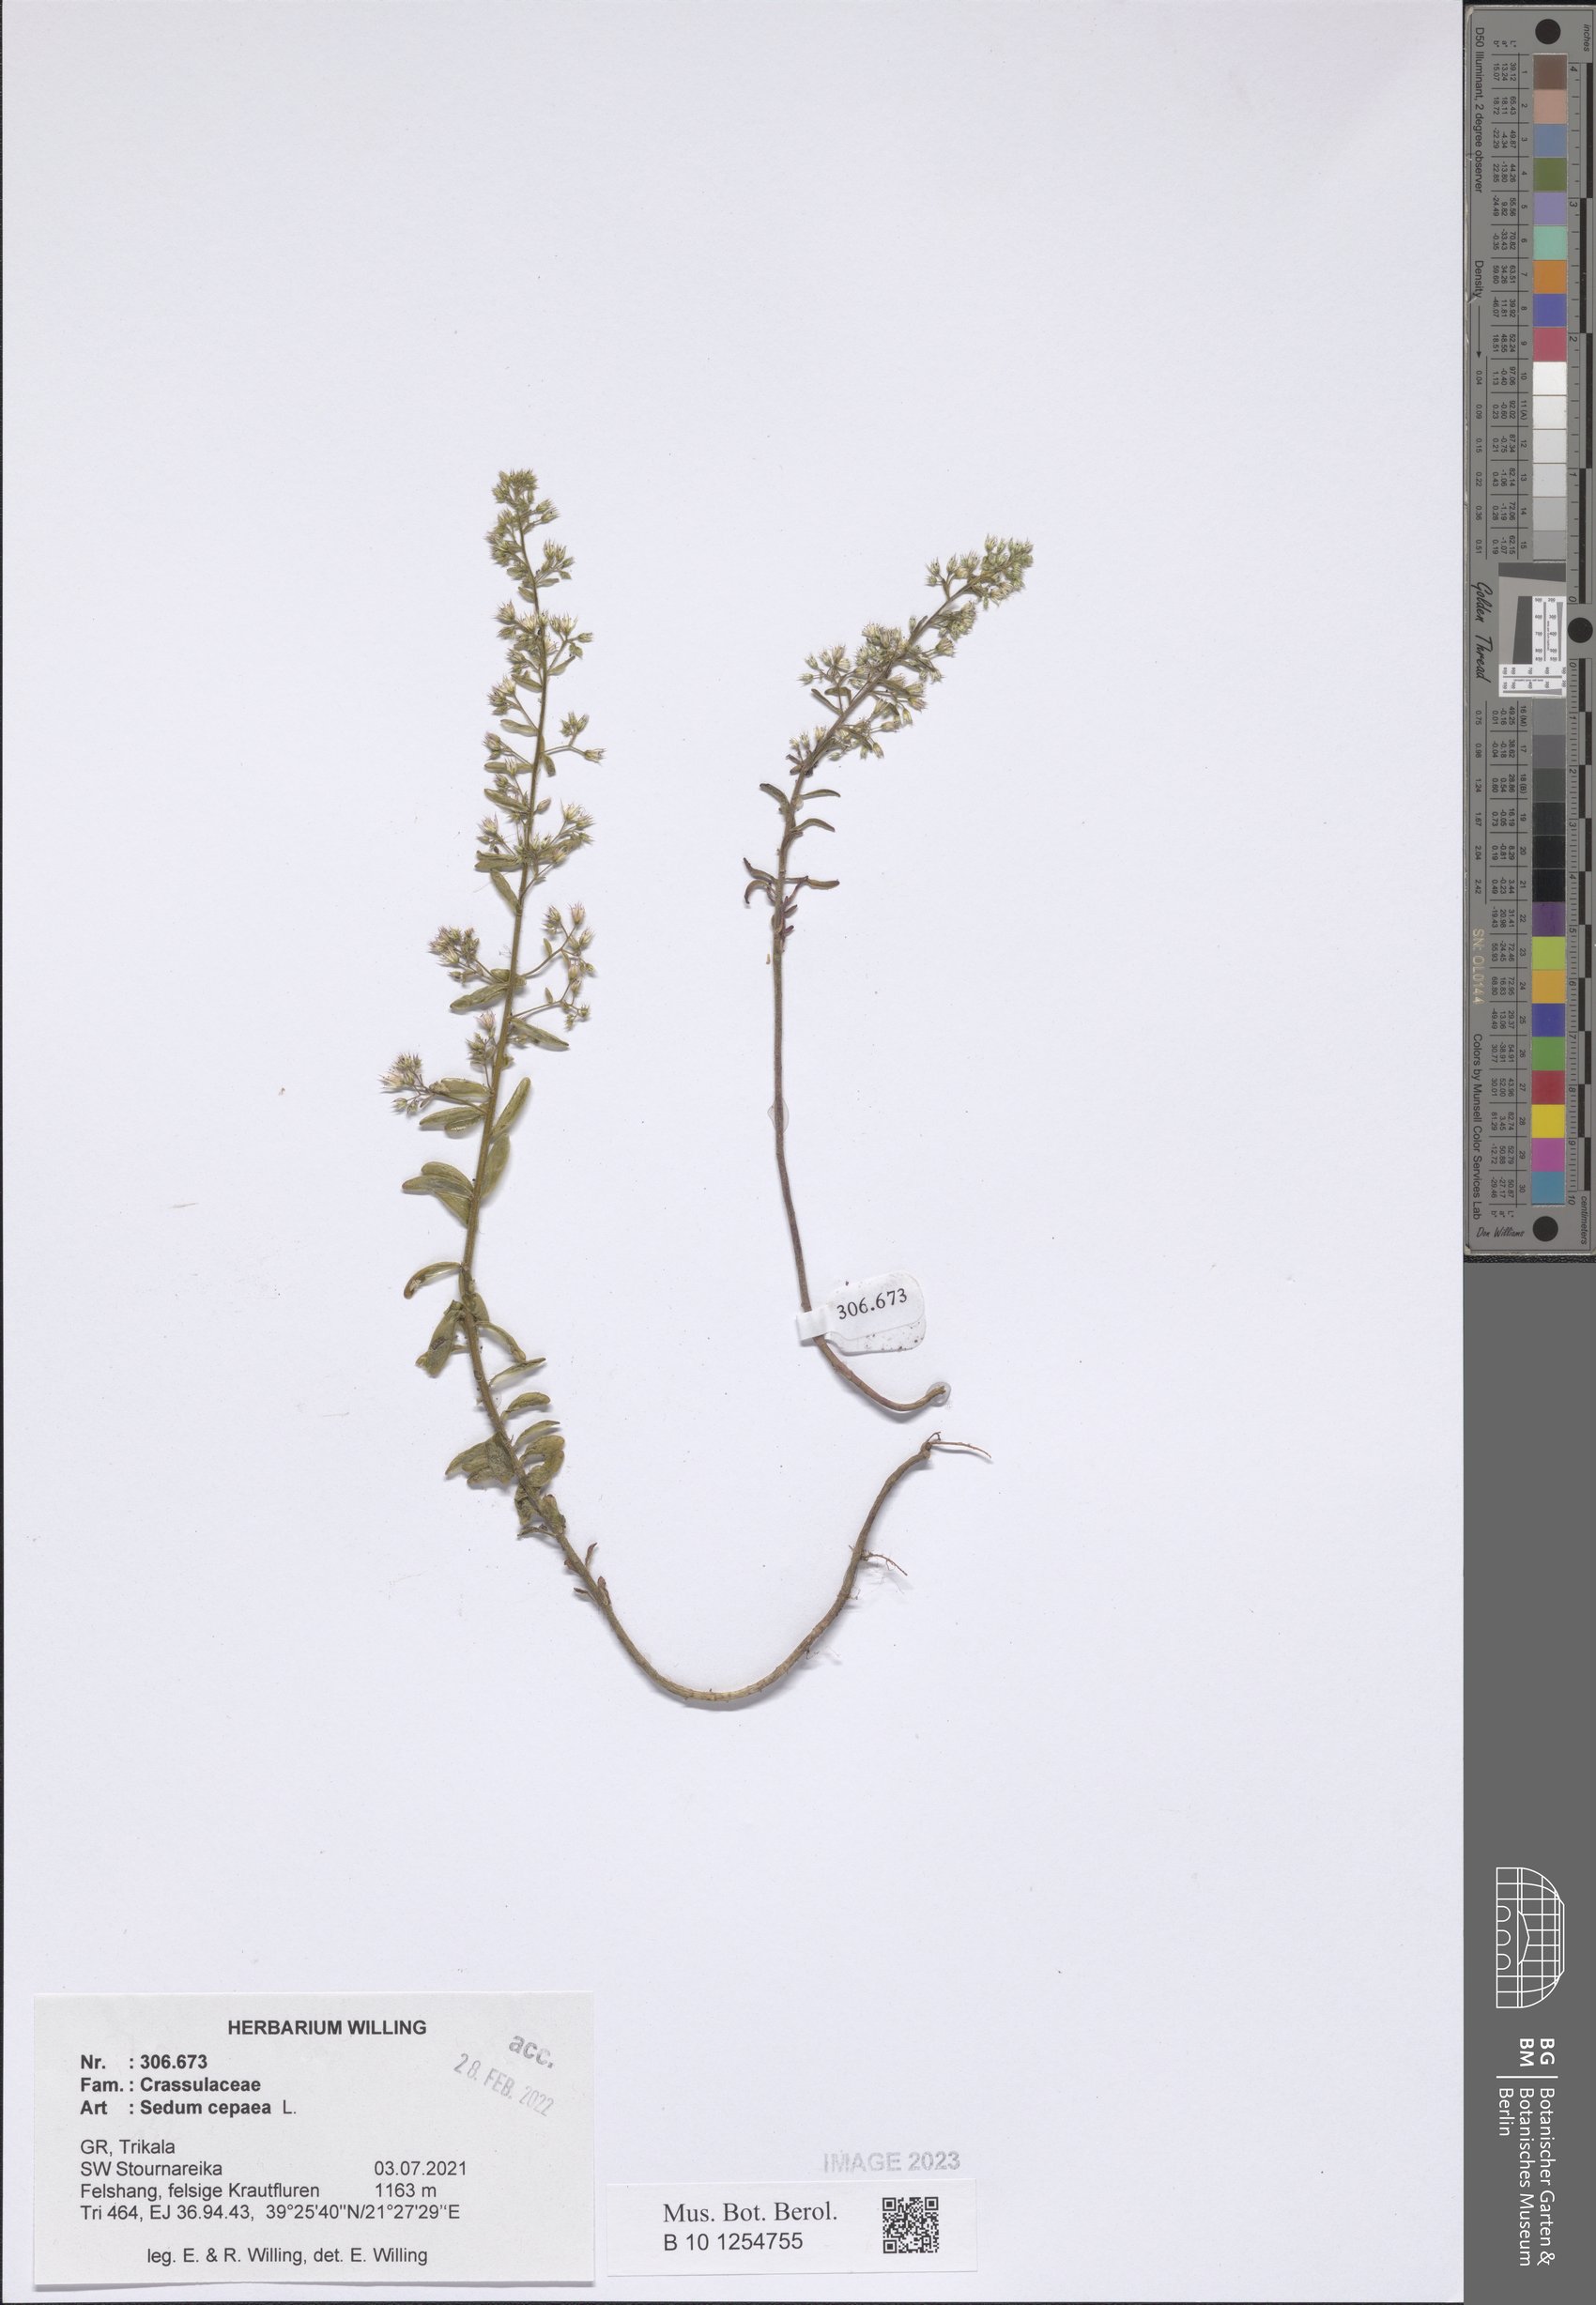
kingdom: Plantae
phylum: Tracheophyta
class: Magnoliopsida
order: Saxifragales
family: Crassulaceae
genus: Sedum
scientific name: Sedum cepaea
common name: Pink stonecrop
